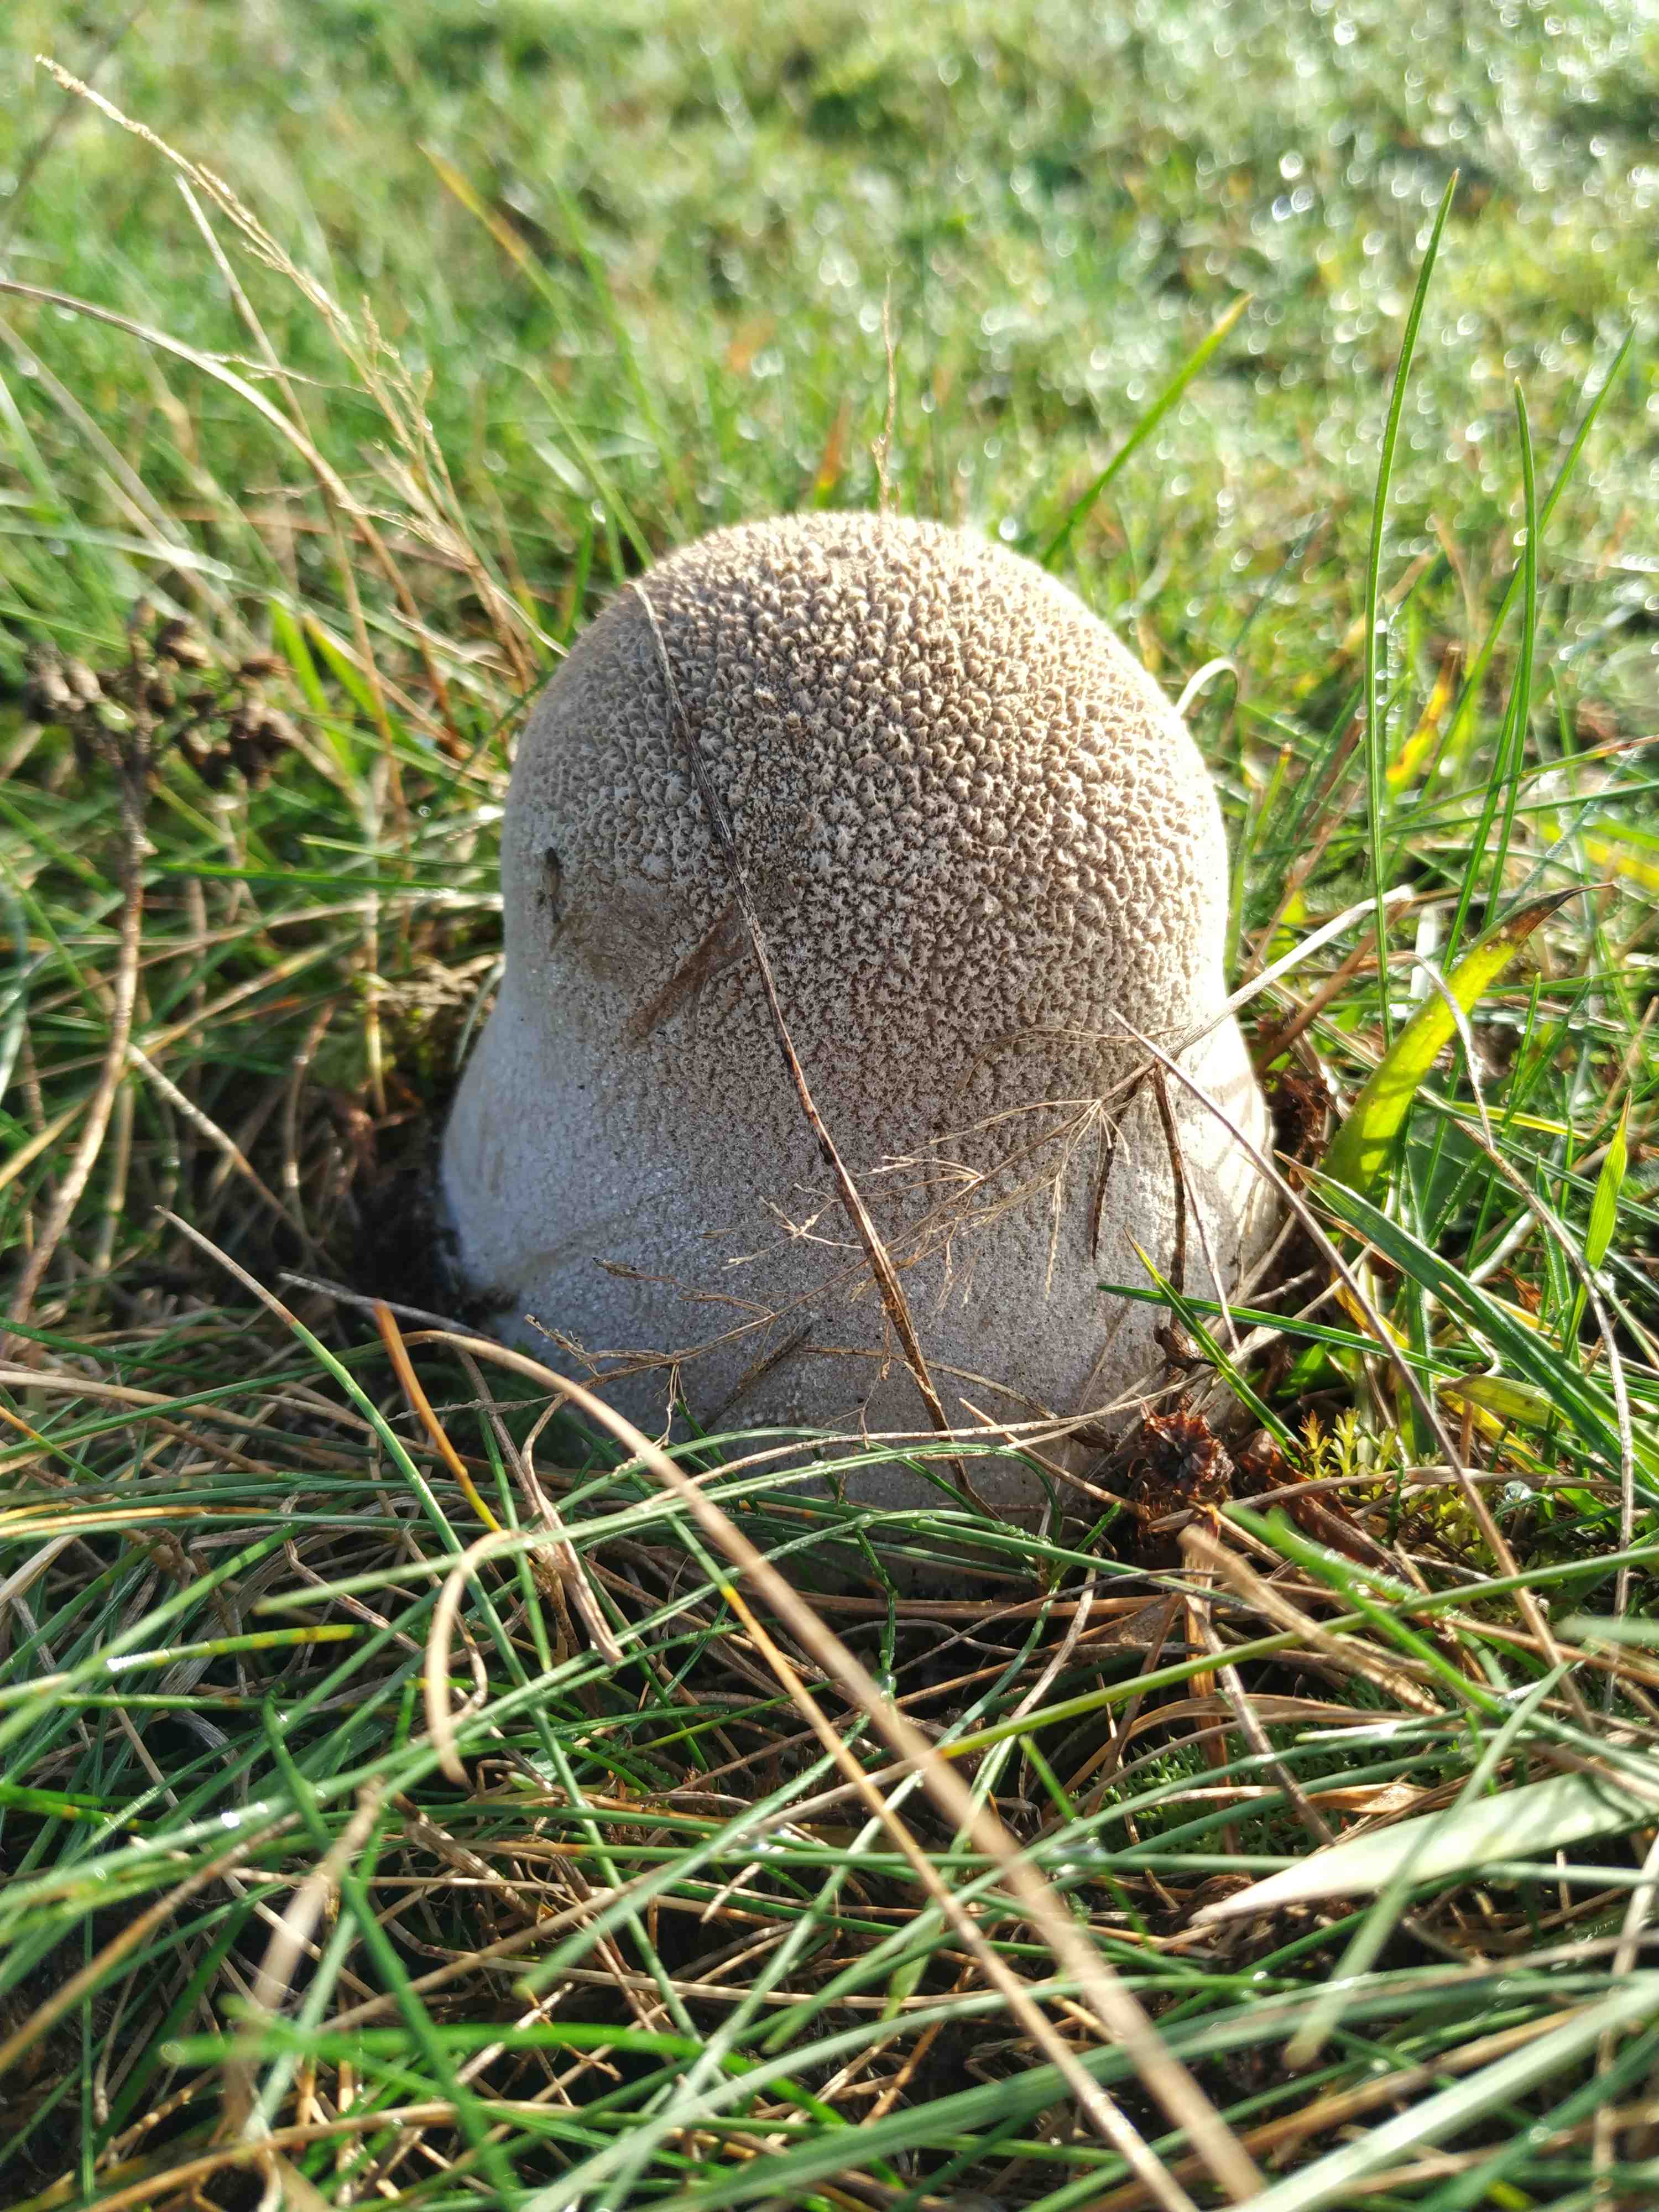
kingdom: Fungi
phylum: Basidiomycota
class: Agaricomycetes
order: Agaricales
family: Lycoperdaceae
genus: Bovistella
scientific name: Bovistella utriformis
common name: skællet støvbold
